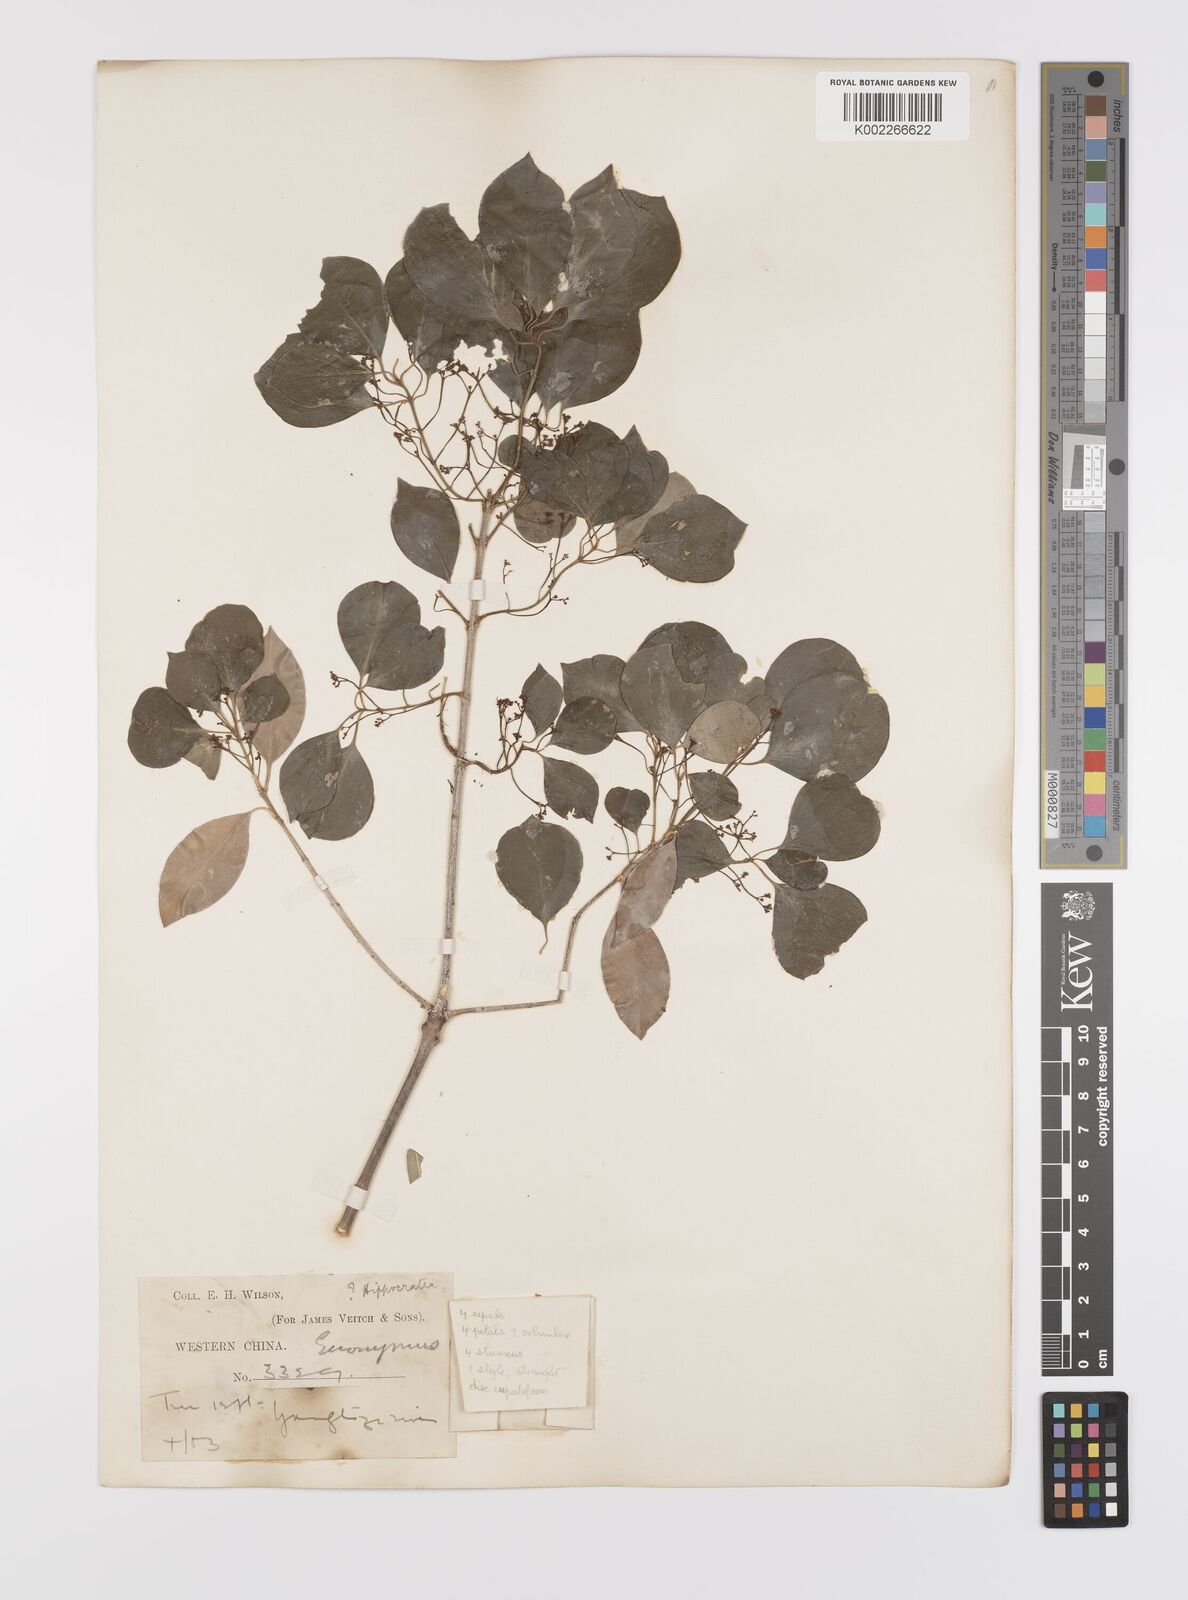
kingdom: Plantae
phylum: Tracheophyta
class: Magnoliopsida
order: Celastrales
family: Celastraceae
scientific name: Celastraceae
